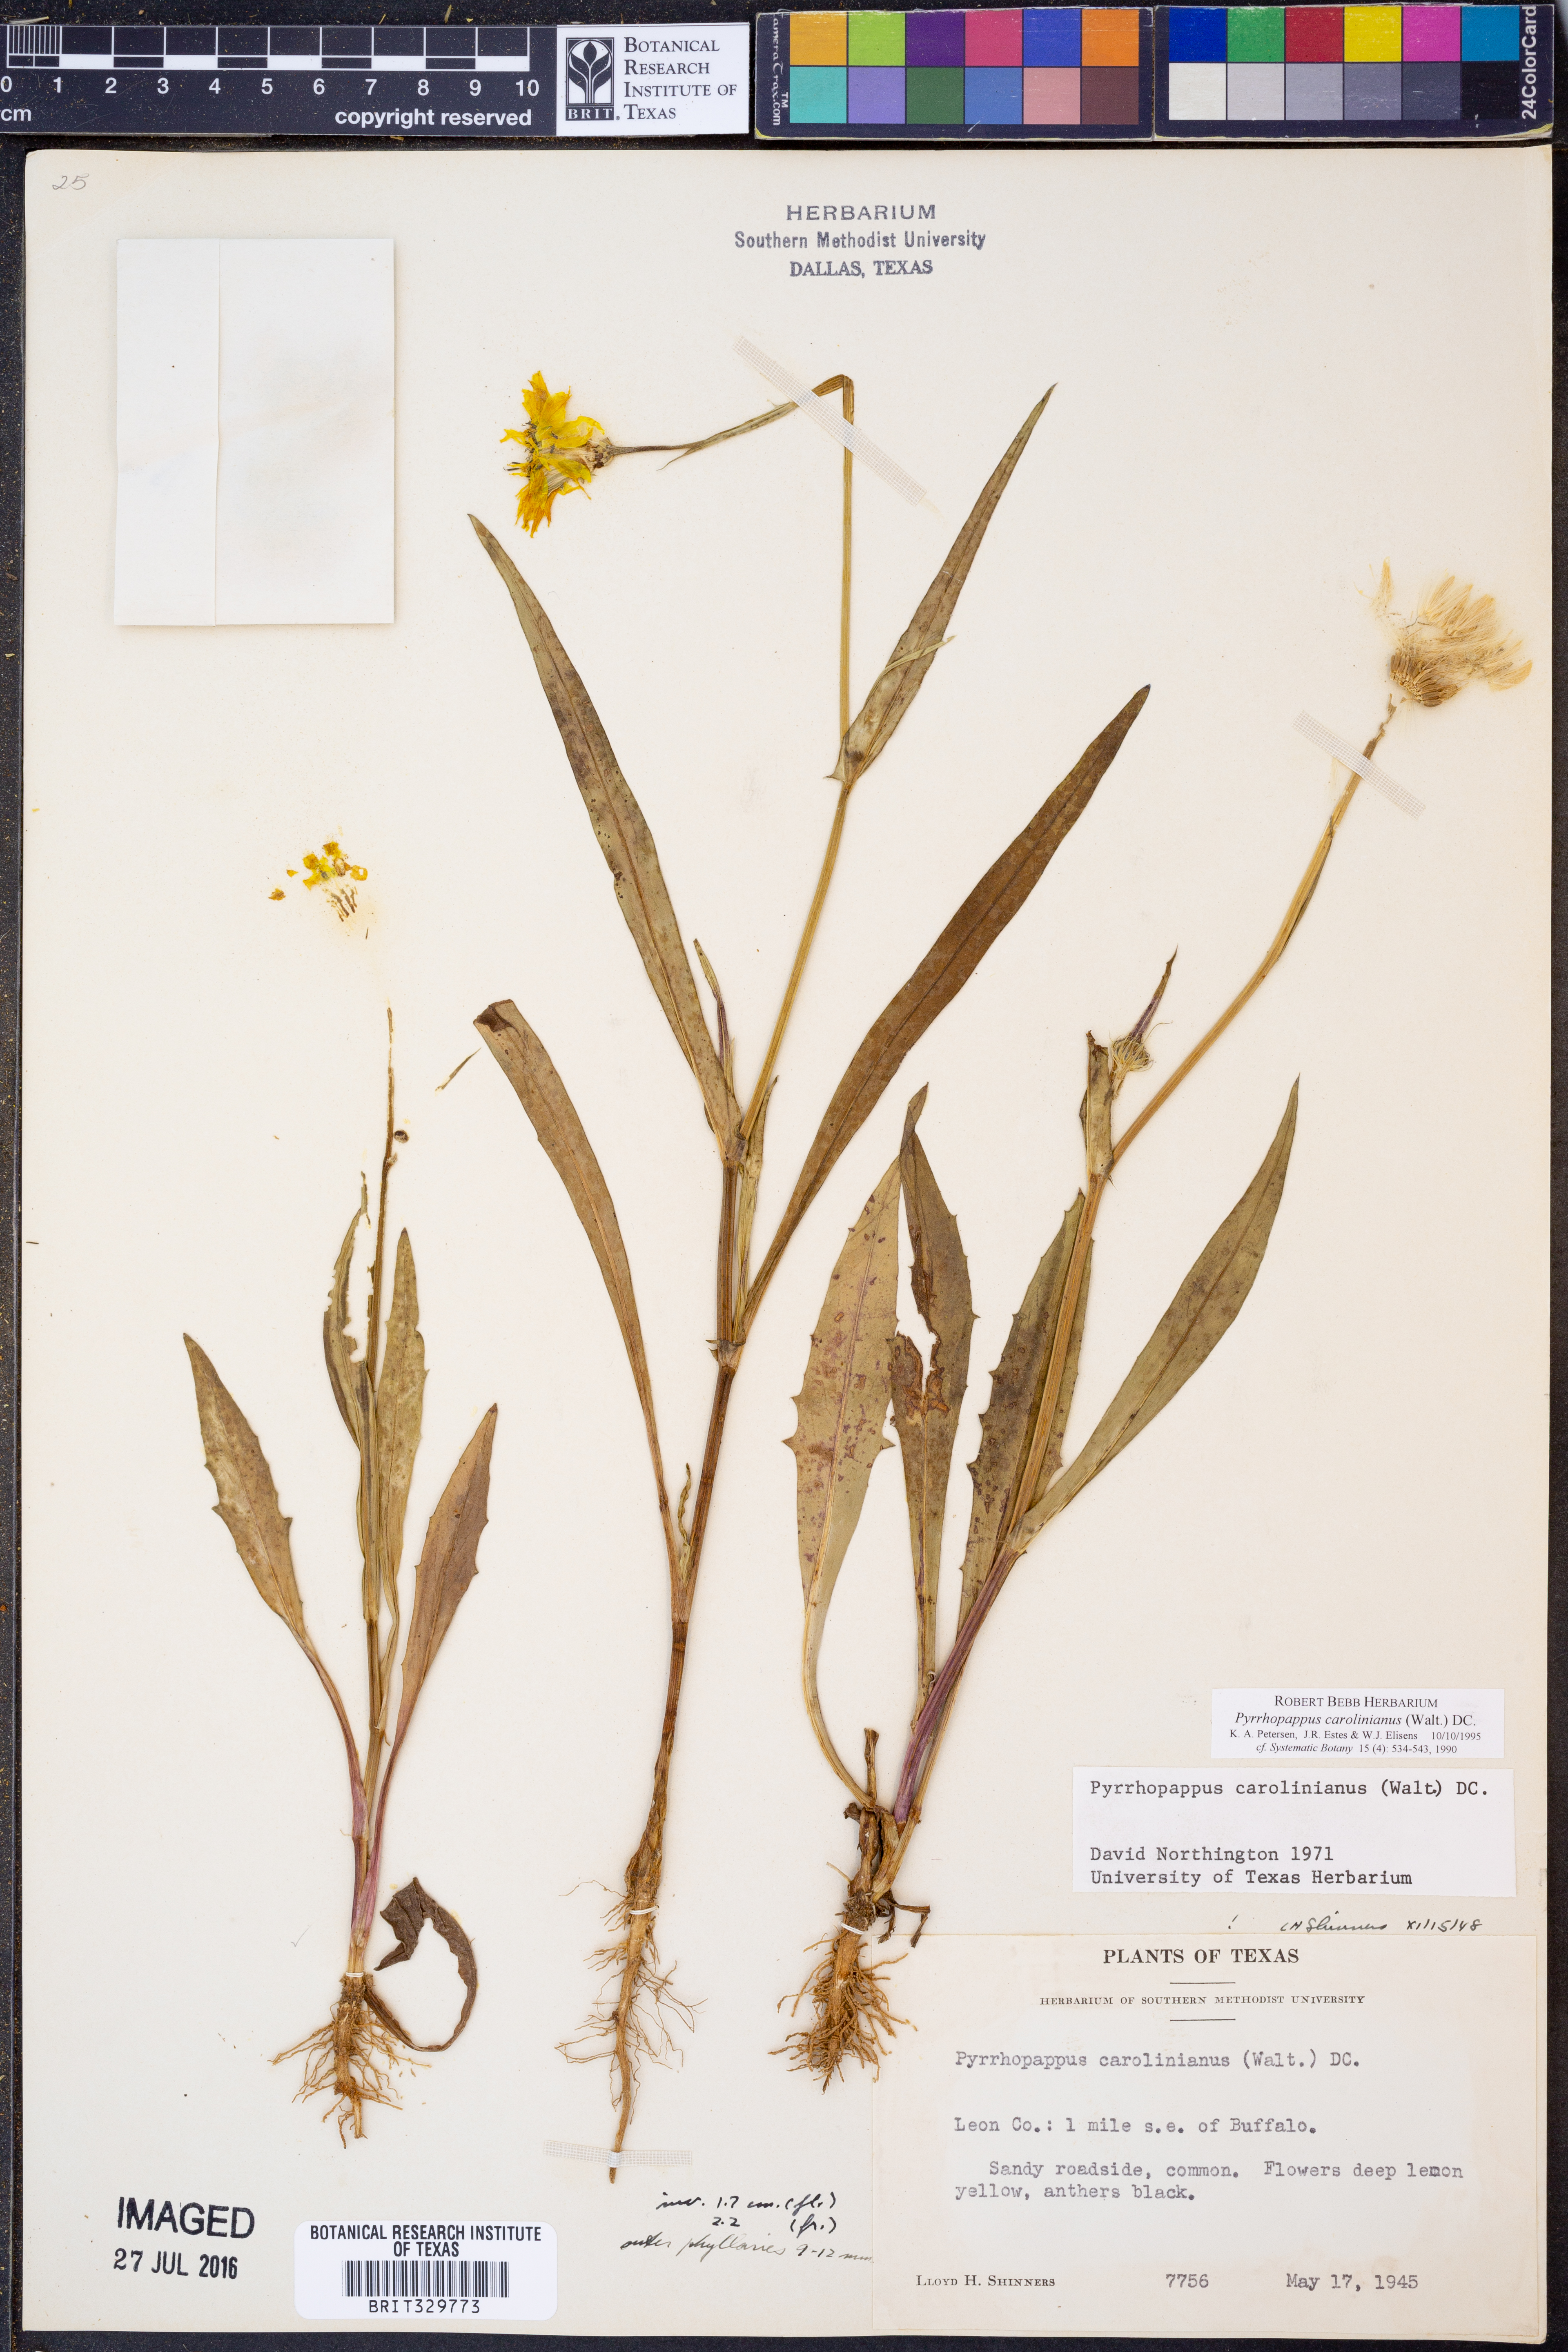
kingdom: Plantae
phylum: Tracheophyta
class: Magnoliopsida
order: Asterales
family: Asteraceae
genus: Pyrrhopappus
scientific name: Pyrrhopappus carolinianus
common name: Carolina desert-chicory
